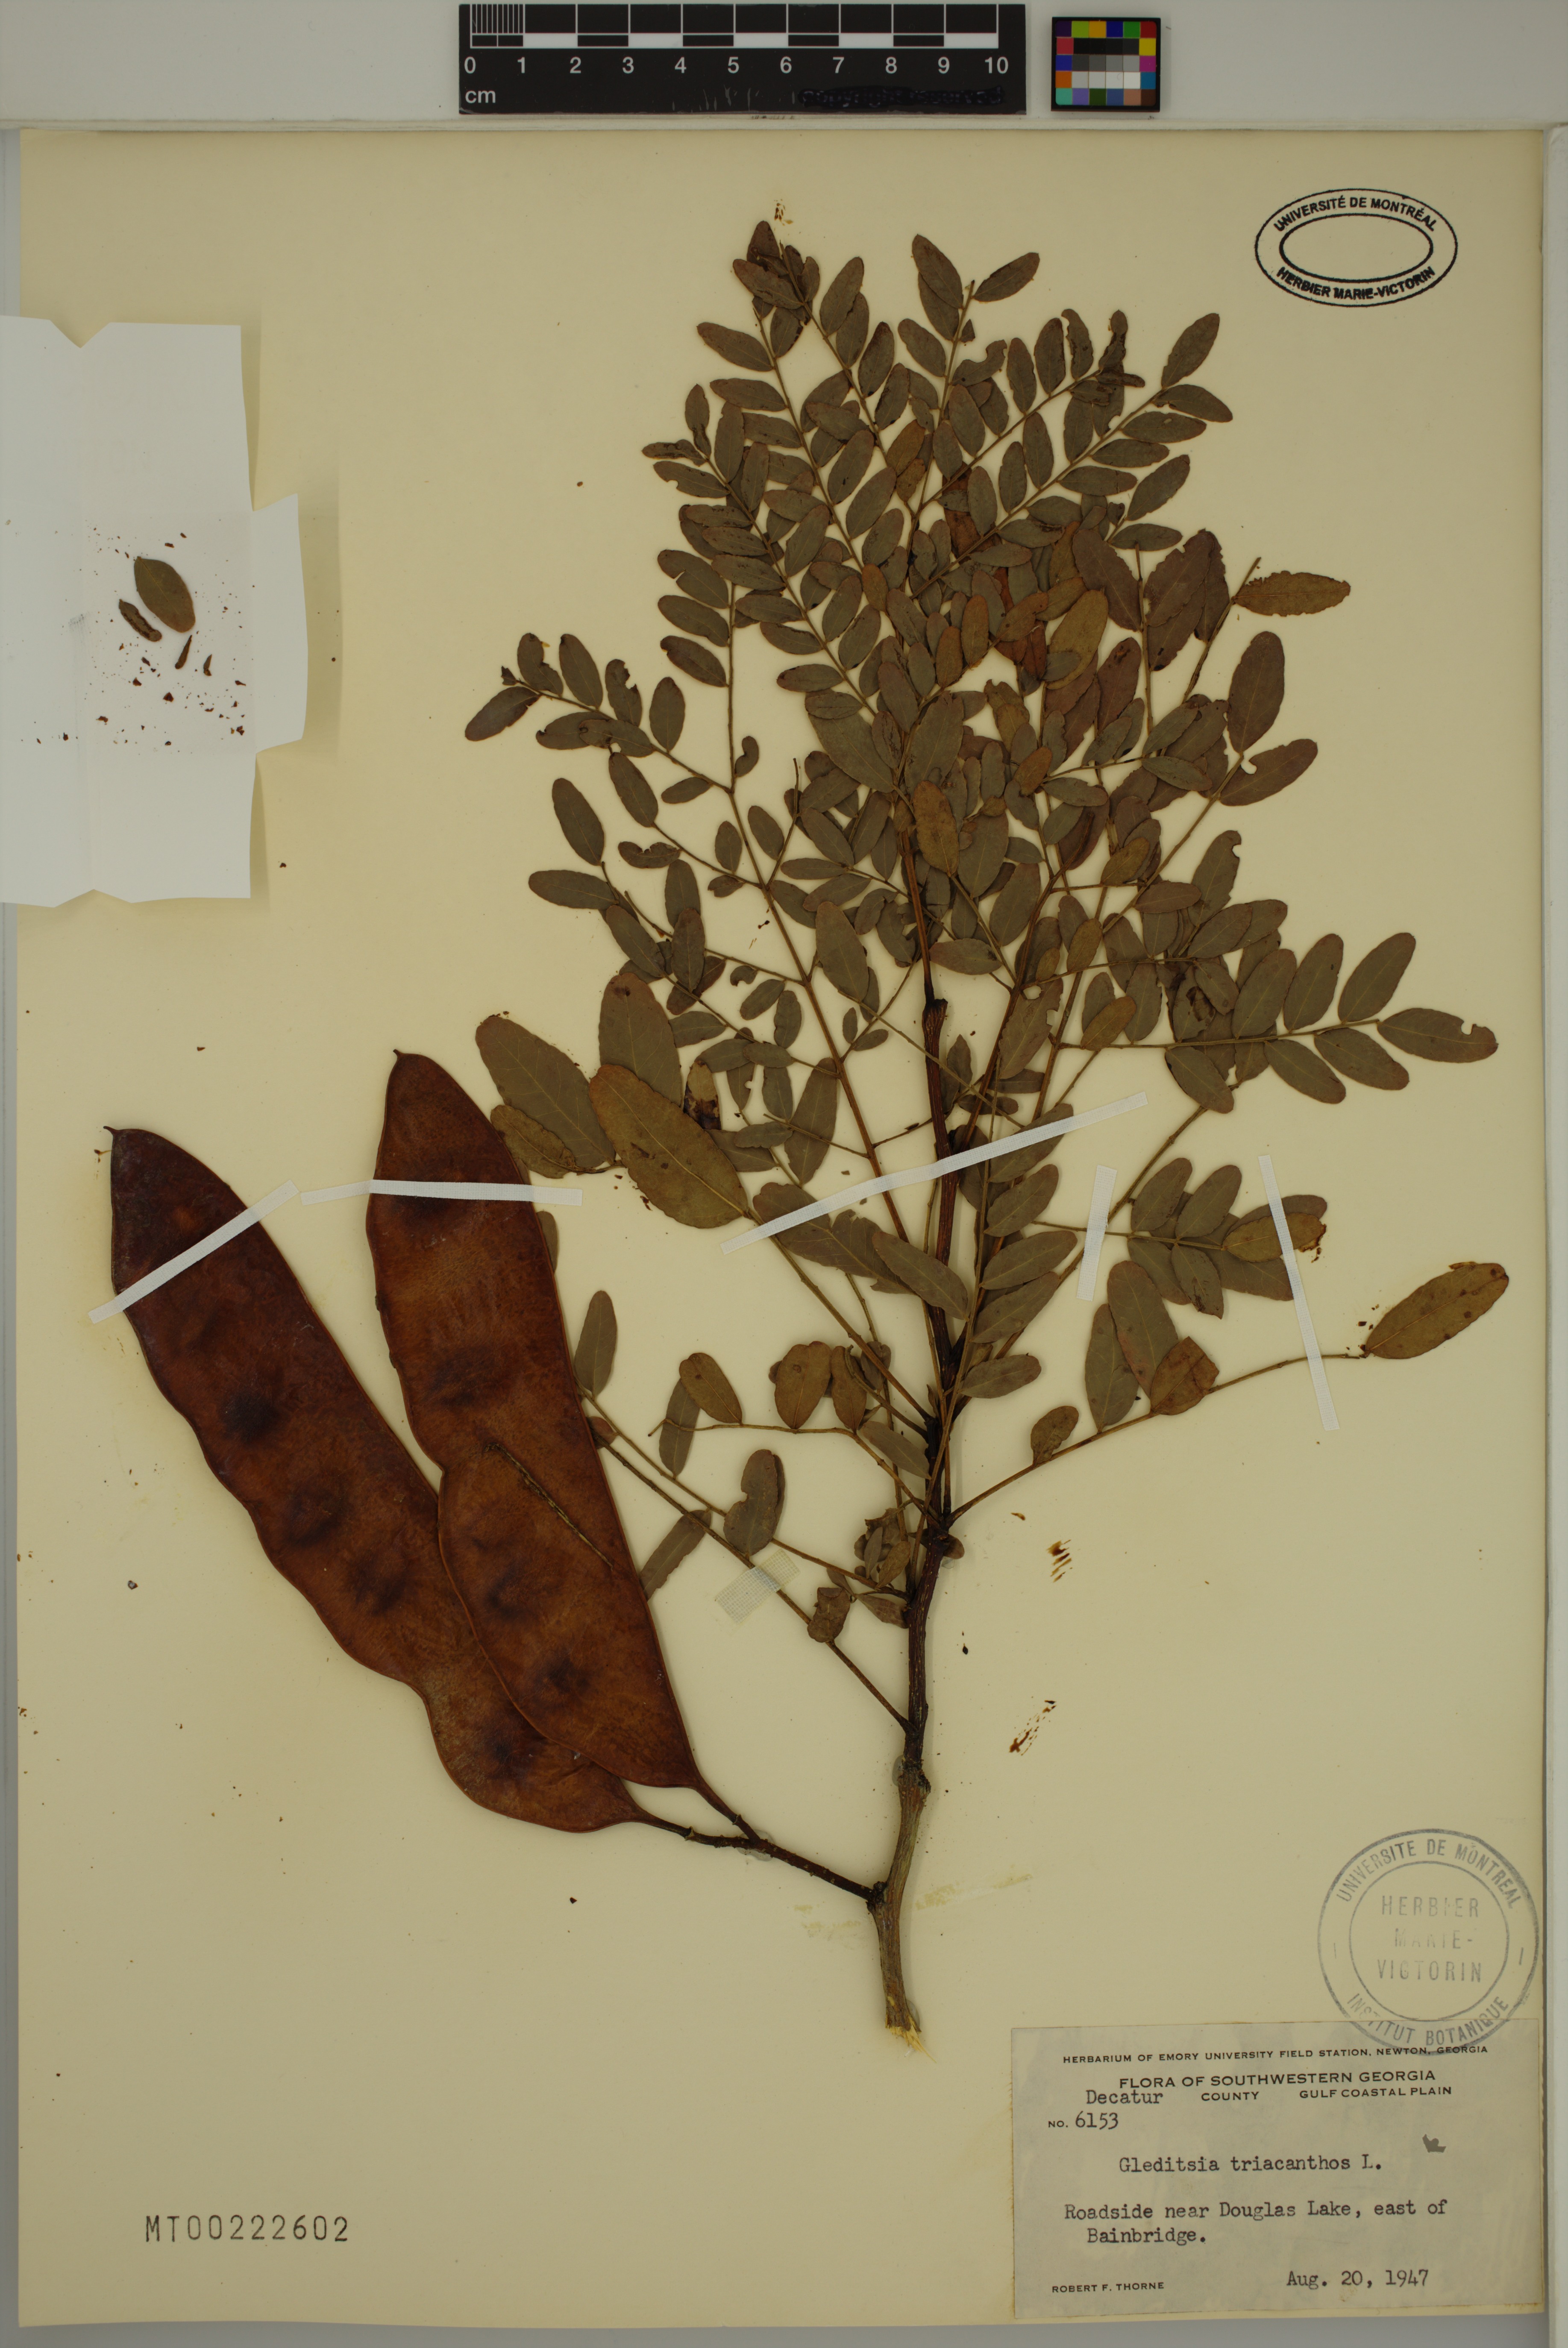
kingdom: Plantae
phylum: Tracheophyta
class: Magnoliopsida
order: Fabales
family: Fabaceae
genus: Gleditsia
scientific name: Gleditsia triacanthos
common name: Common honeylocust
